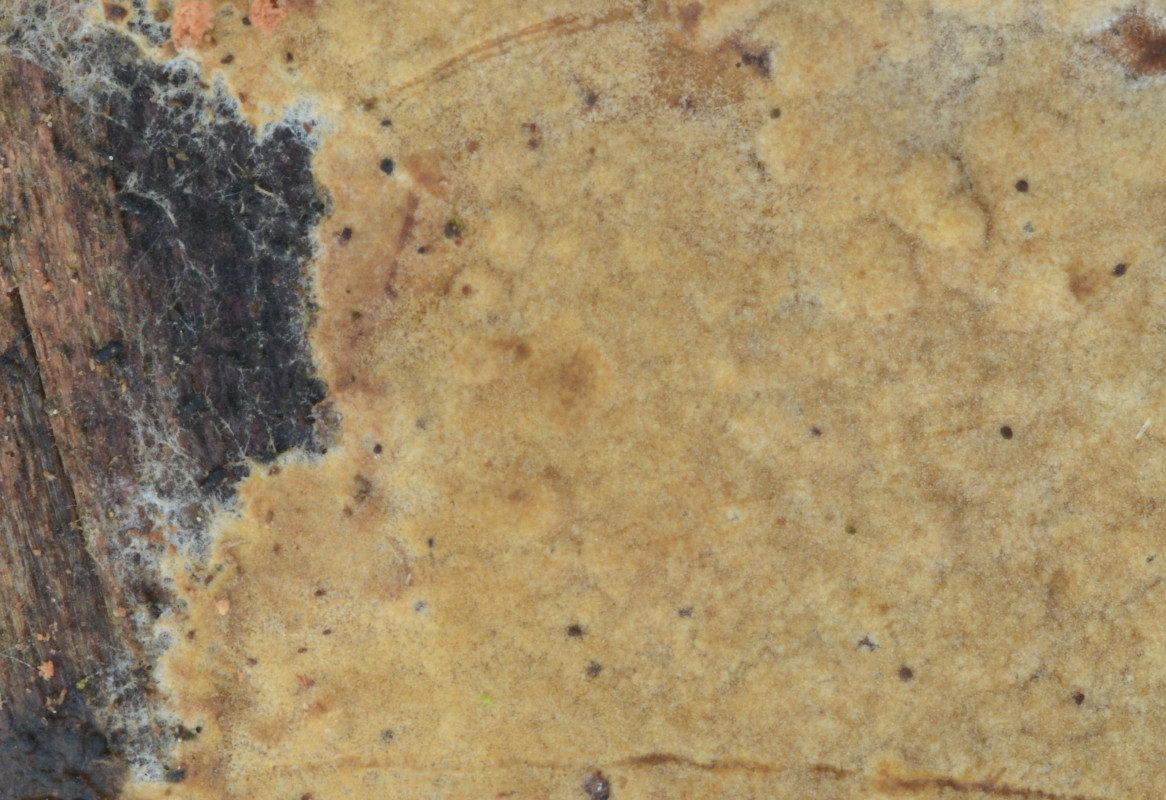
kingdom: Fungi
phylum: Basidiomycota
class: Agaricomycetes
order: Boletales
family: Coniophoraceae
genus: Coniophora
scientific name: Coniophora arida
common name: tynd tømmersvamp
